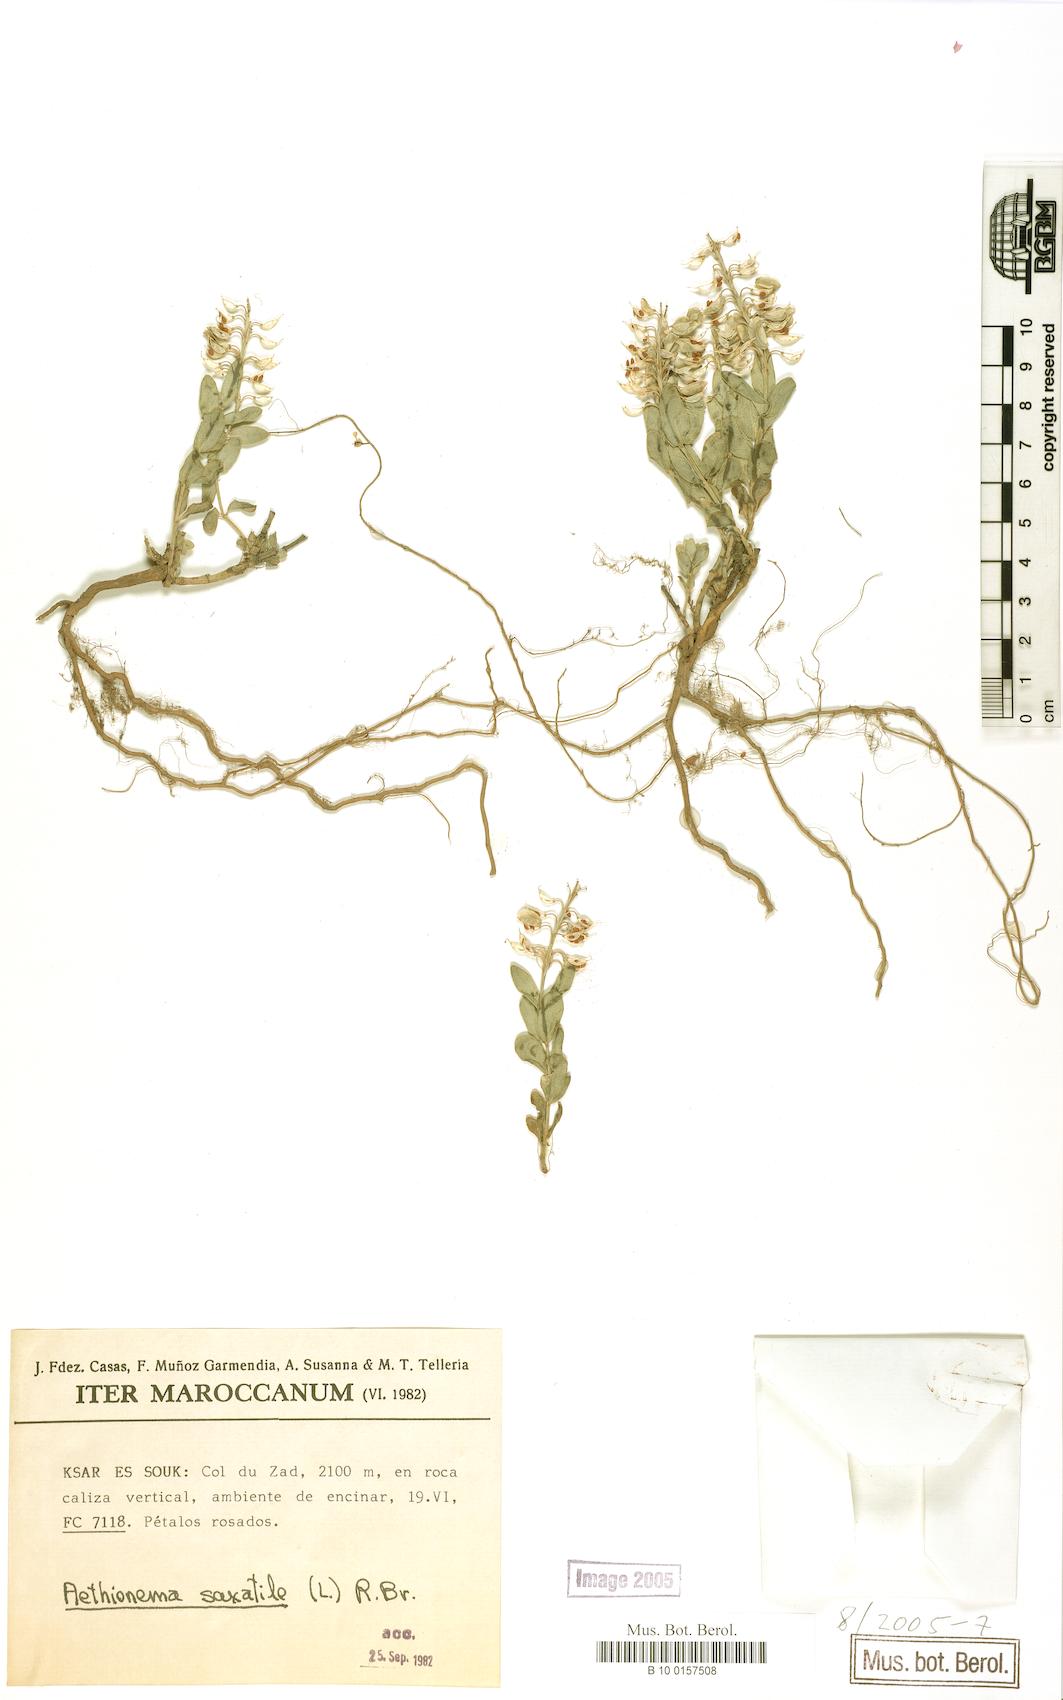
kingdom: Plantae
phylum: Tracheophyta
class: Magnoliopsida
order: Brassicales
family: Brassicaceae
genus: Aethionema
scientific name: Aethionema saxatile
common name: Burnt candytuft
